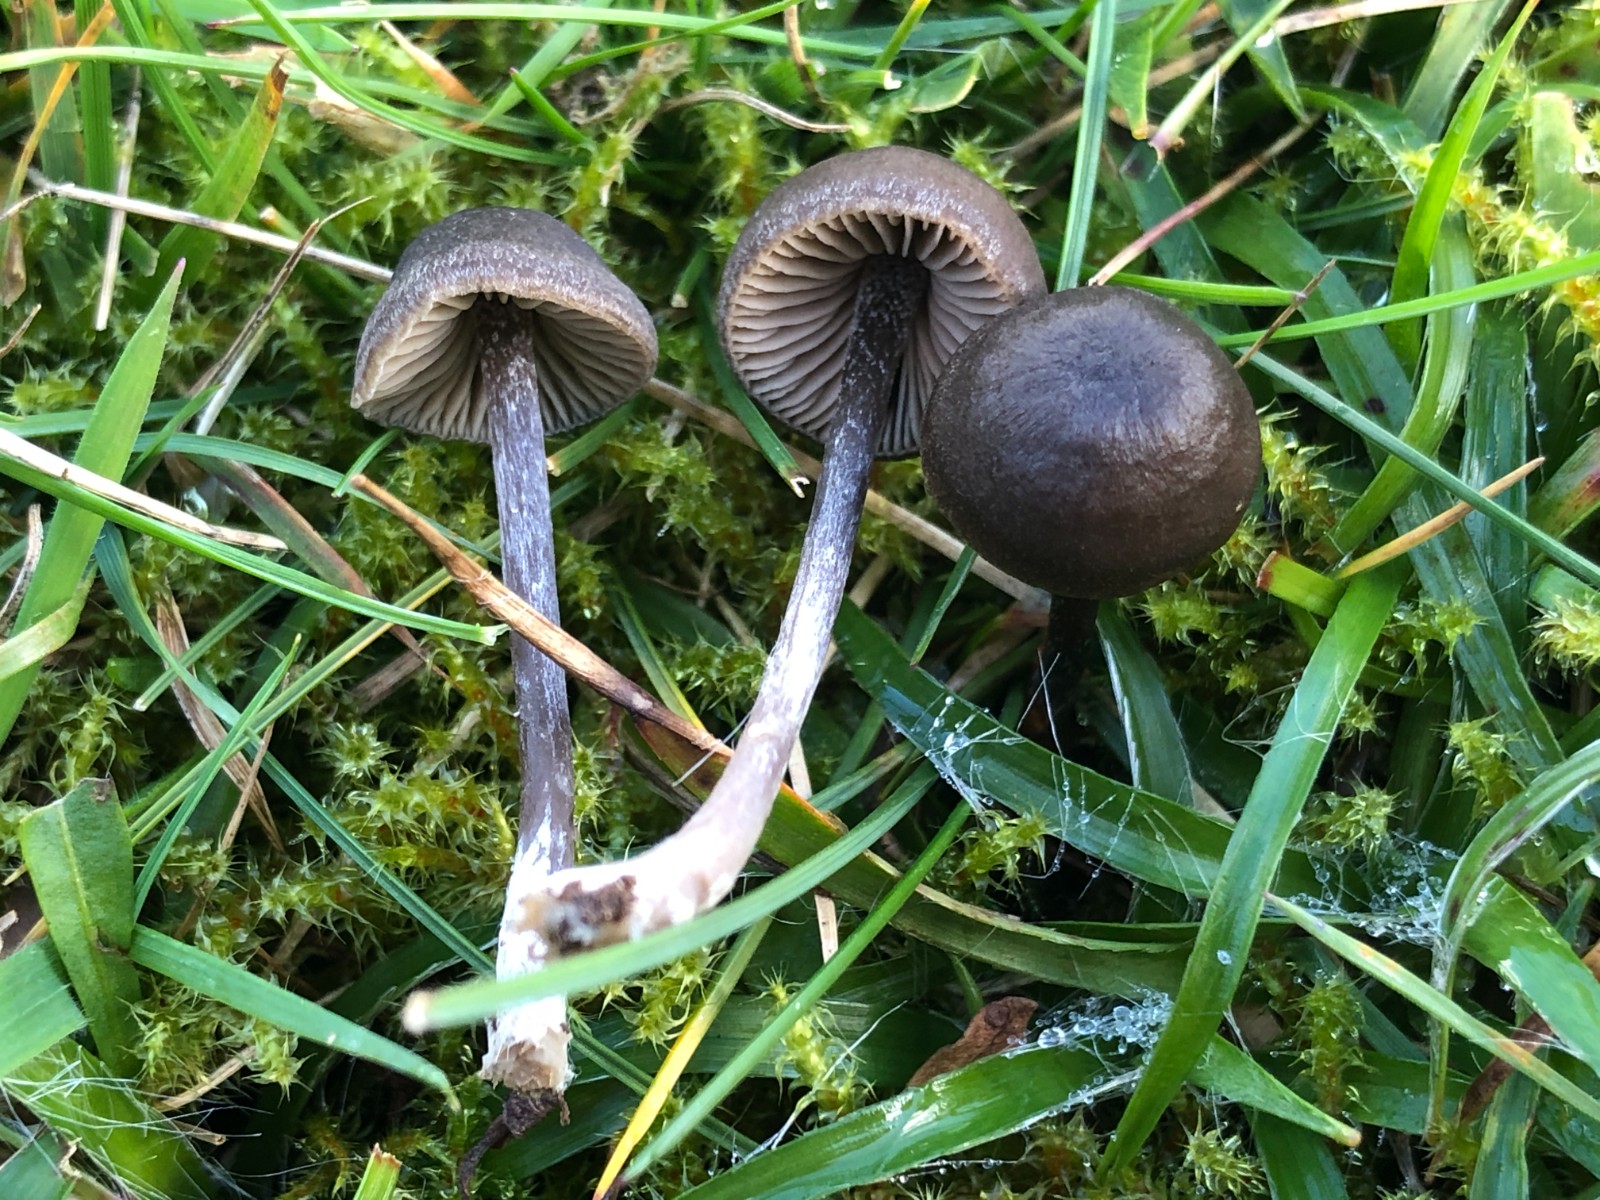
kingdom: Fungi
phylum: Basidiomycota
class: Agaricomycetes
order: Agaricales
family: Entolomataceae
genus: Entoloma
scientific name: Entoloma
